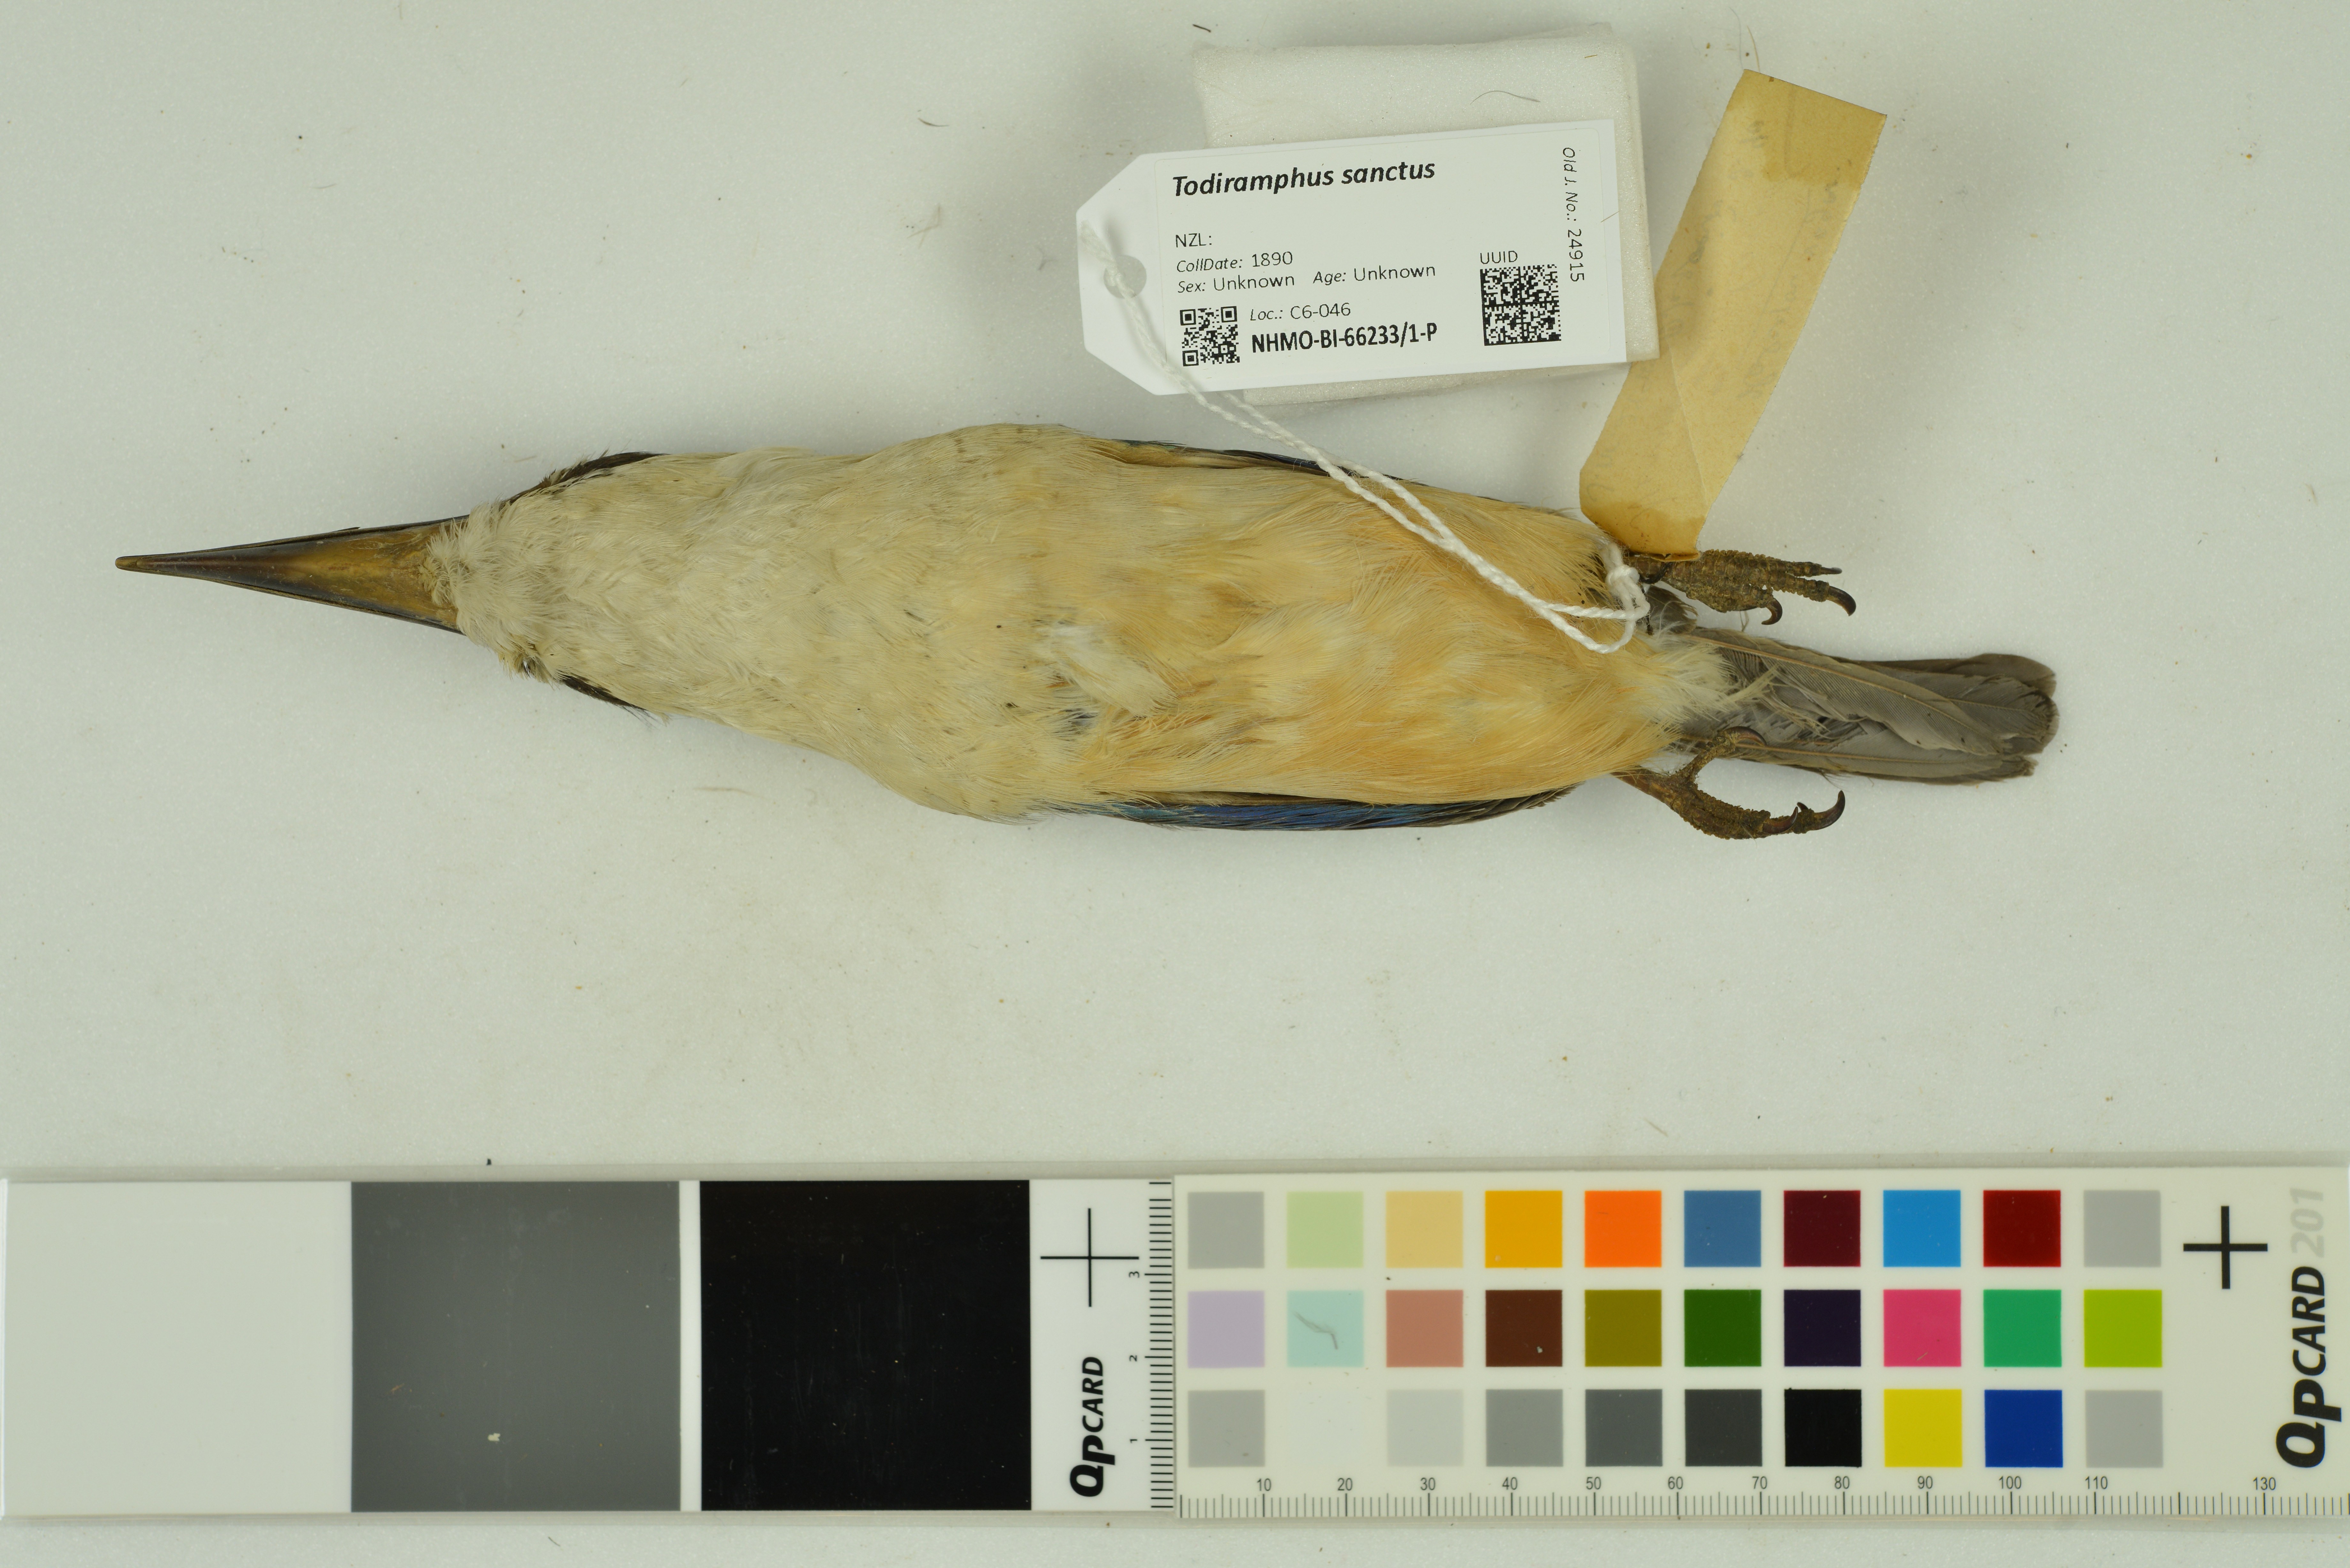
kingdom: Animalia
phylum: Chordata
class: Aves
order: Coraciiformes
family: Alcedinidae
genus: Todiramphus
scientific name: Todiramphus sanctus
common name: Sacred kingfisher
